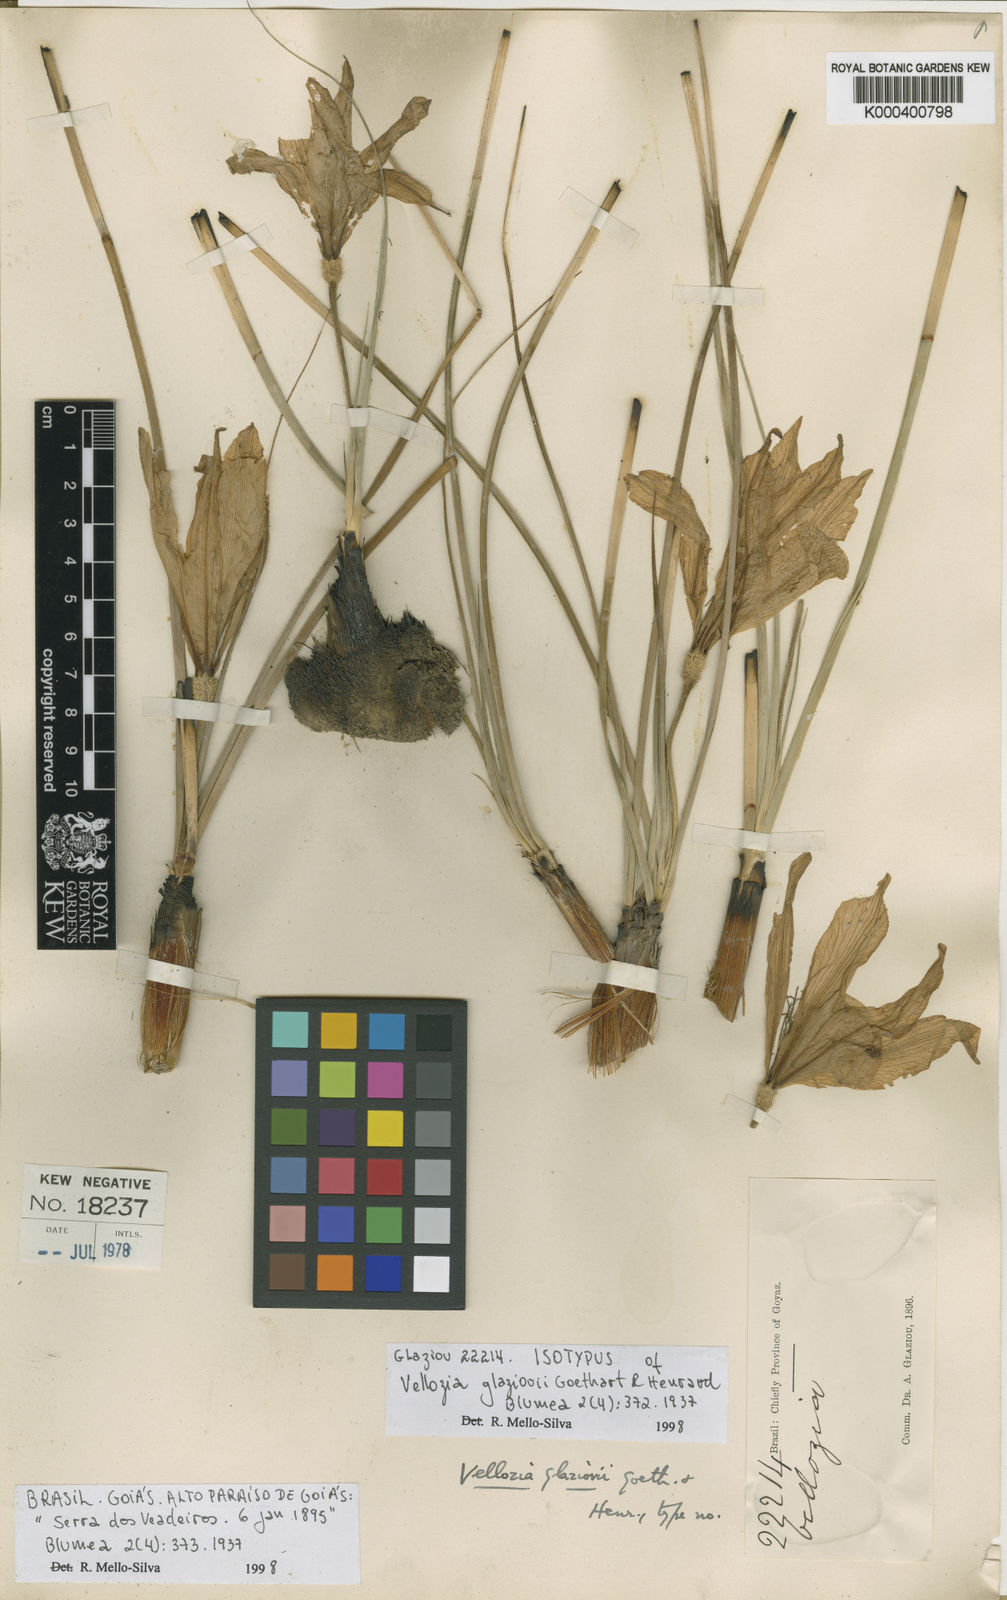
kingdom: Plantae
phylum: Tracheophyta
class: Liliopsida
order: Pandanales
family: Velloziaceae
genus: Vellozia
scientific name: Vellozia pumila
